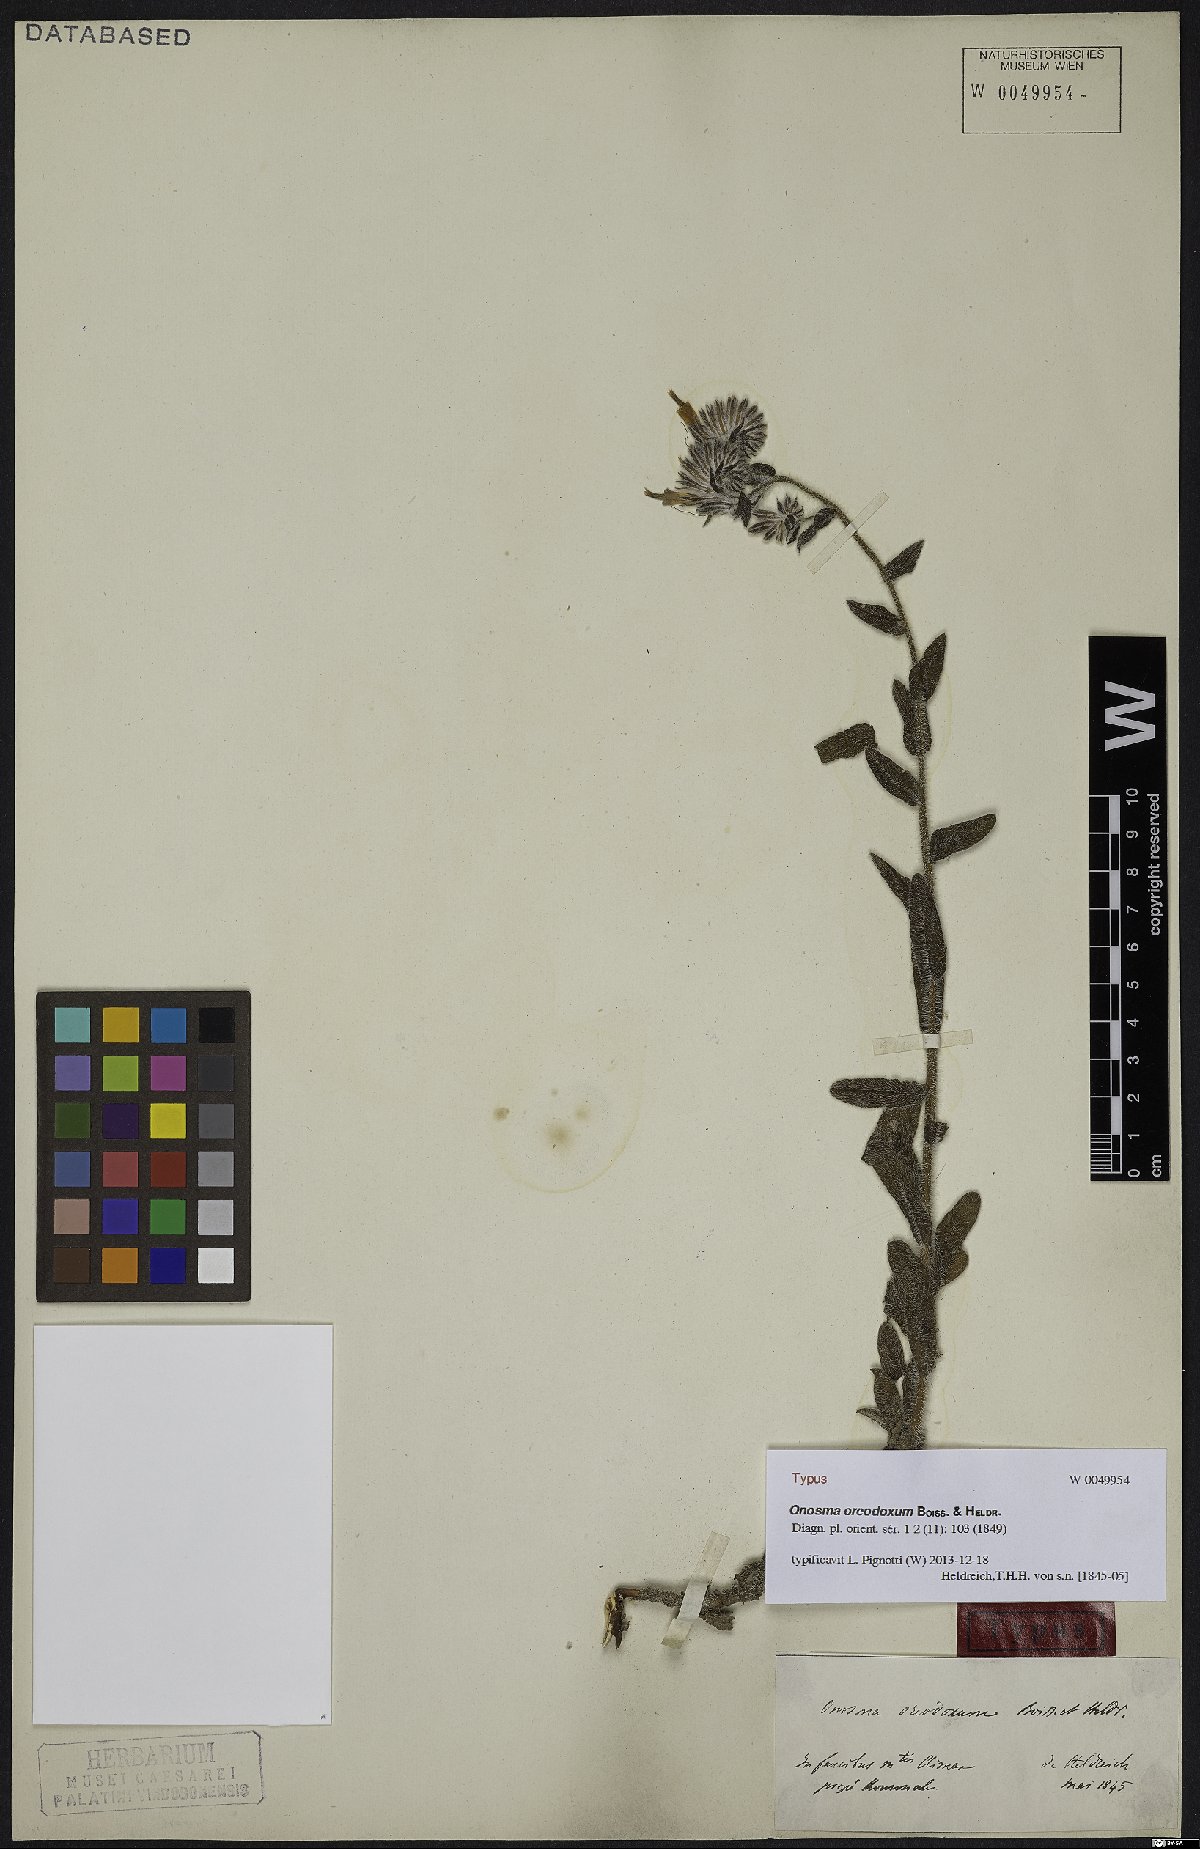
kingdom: Plantae
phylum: Tracheophyta
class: Magnoliopsida
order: Boraginales
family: Boraginaceae
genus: Onosma
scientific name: Onosma oreodoxa
